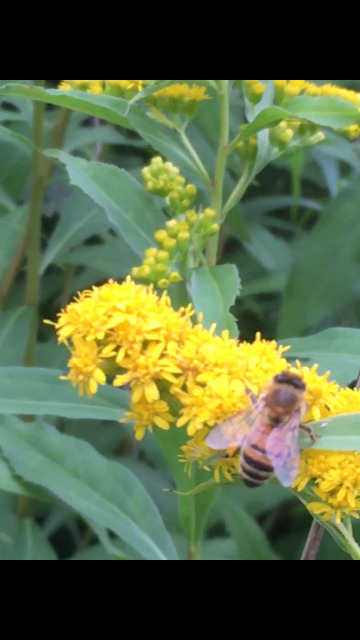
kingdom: Animalia
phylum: Arthropoda
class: Insecta
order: Hymenoptera
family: Apidae
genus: Apis
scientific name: Apis mellifera
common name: Honningbi
